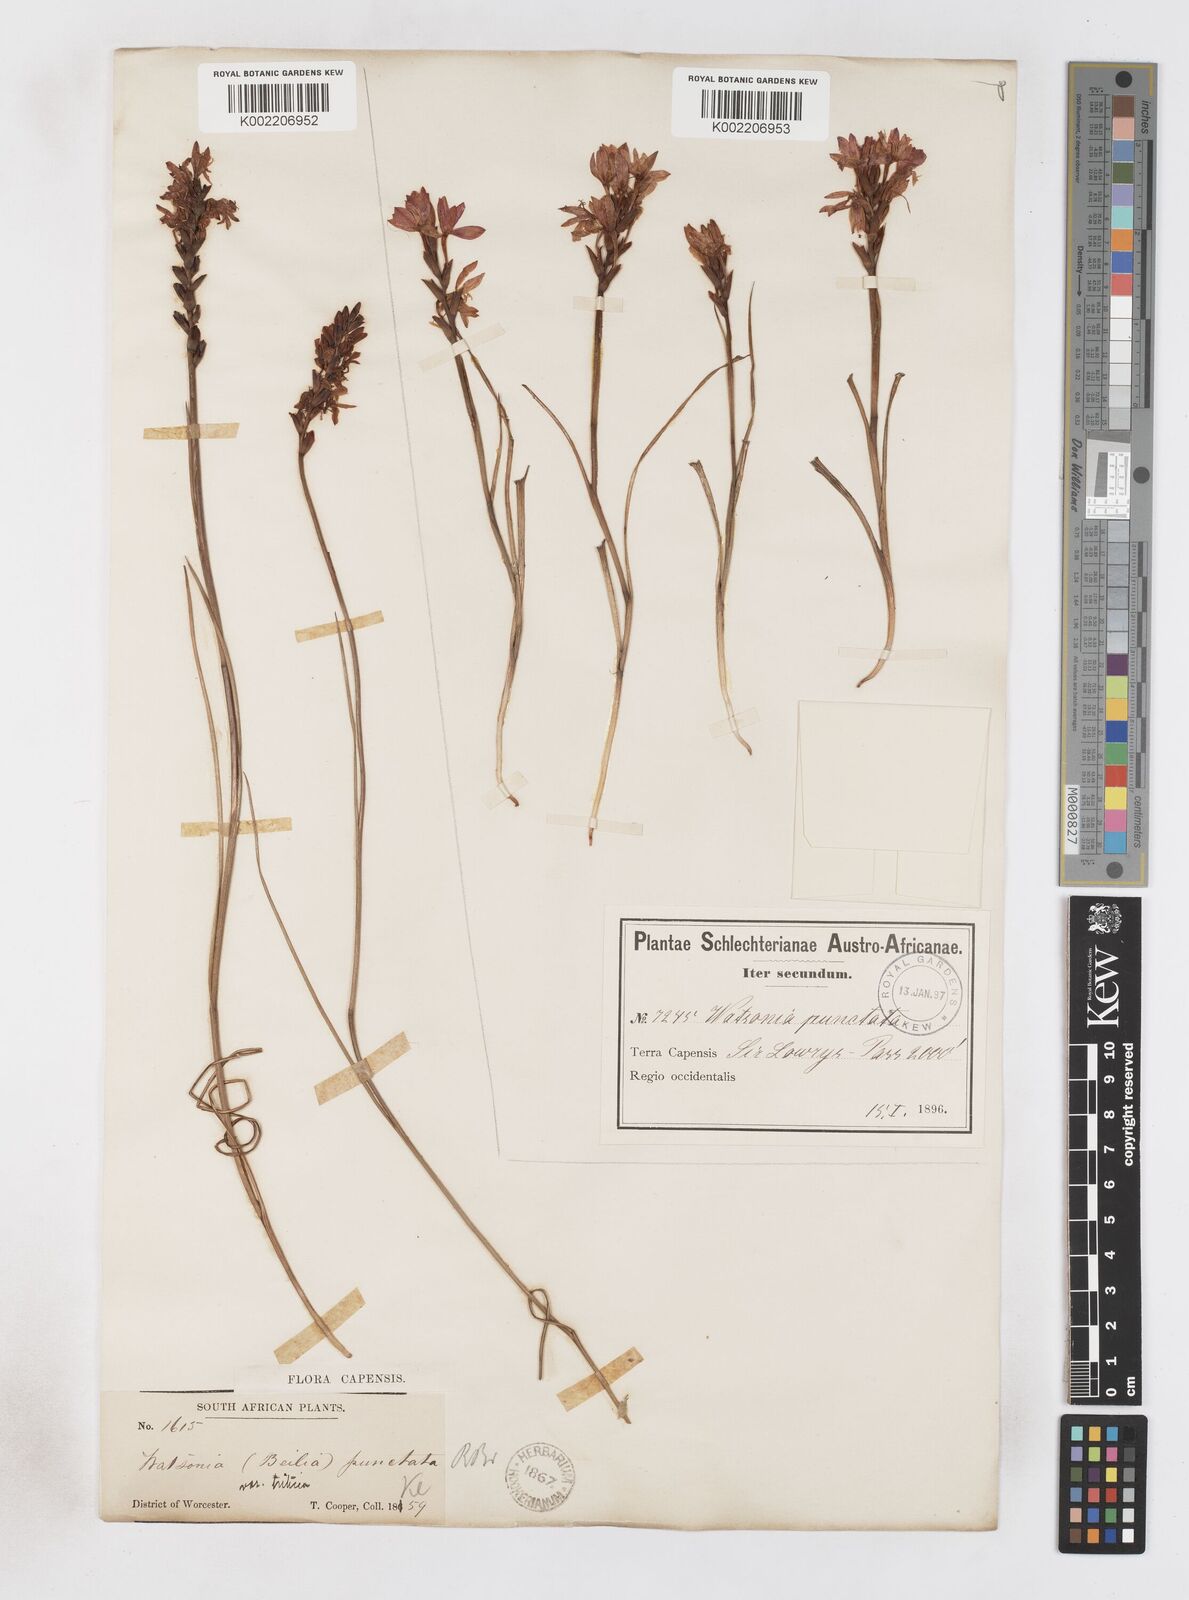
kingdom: Plantae
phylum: Tracheophyta
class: Liliopsida
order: Asparagales
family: Iridaceae
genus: Thereianthus
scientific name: Thereianthus spicatus
